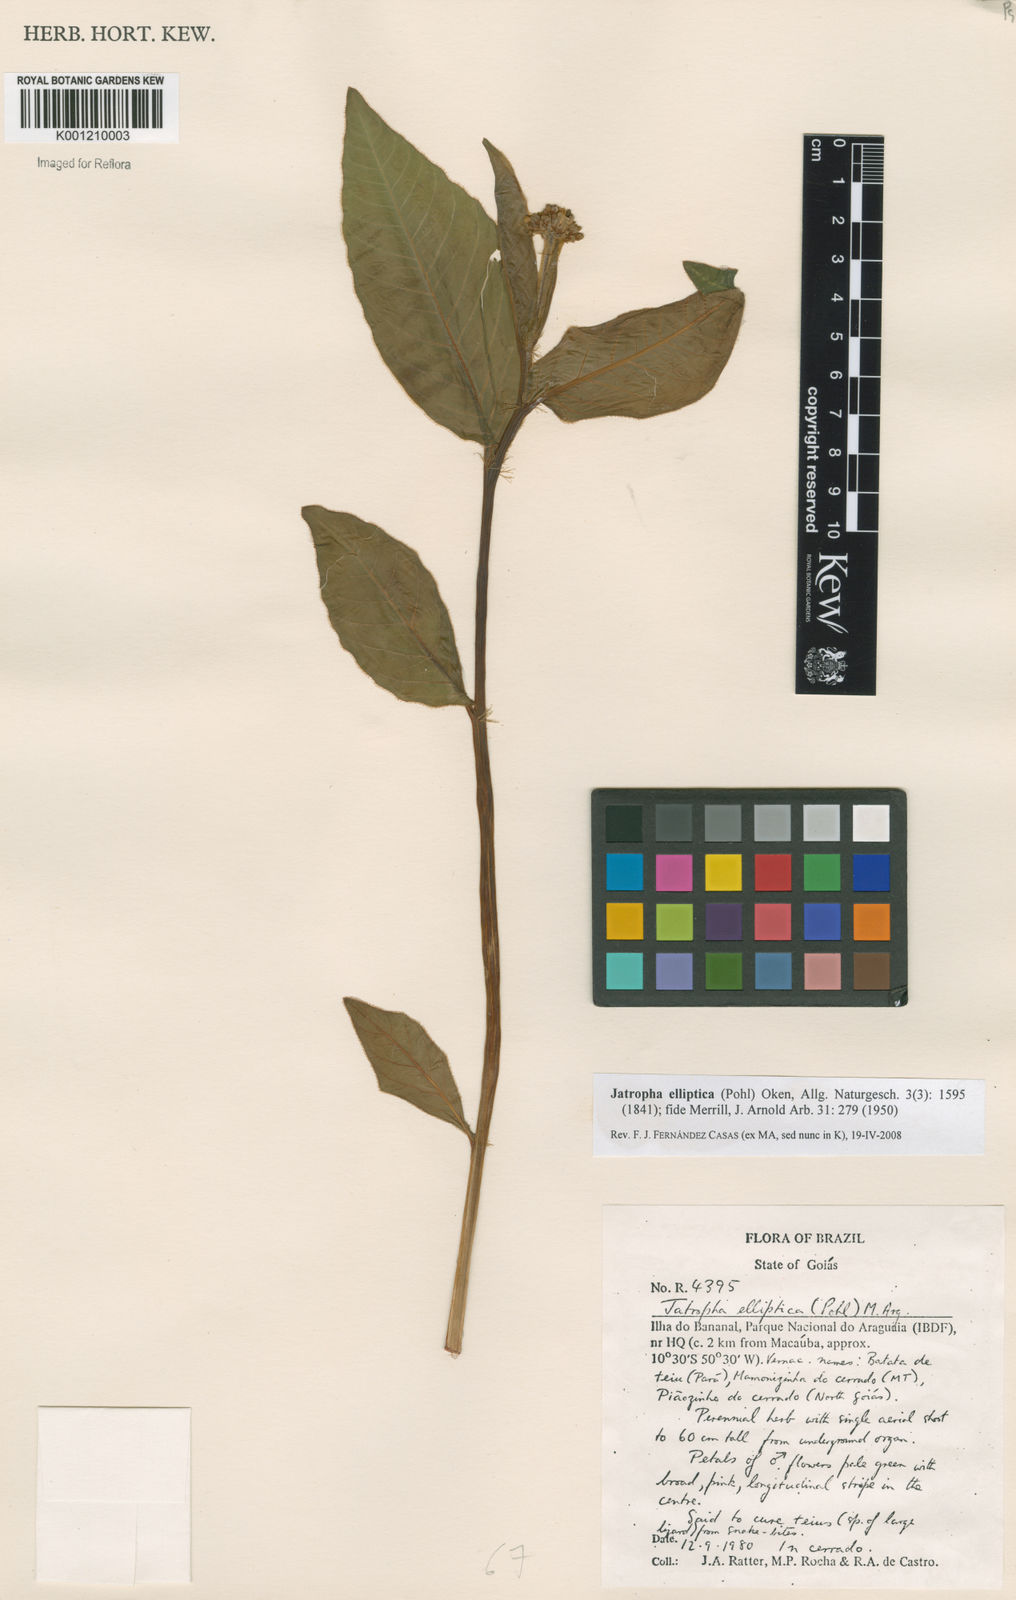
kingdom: Plantae
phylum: Tracheophyta
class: Magnoliopsida
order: Malpighiales
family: Euphorbiaceae
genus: Jatropha
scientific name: Jatropha elliptica
